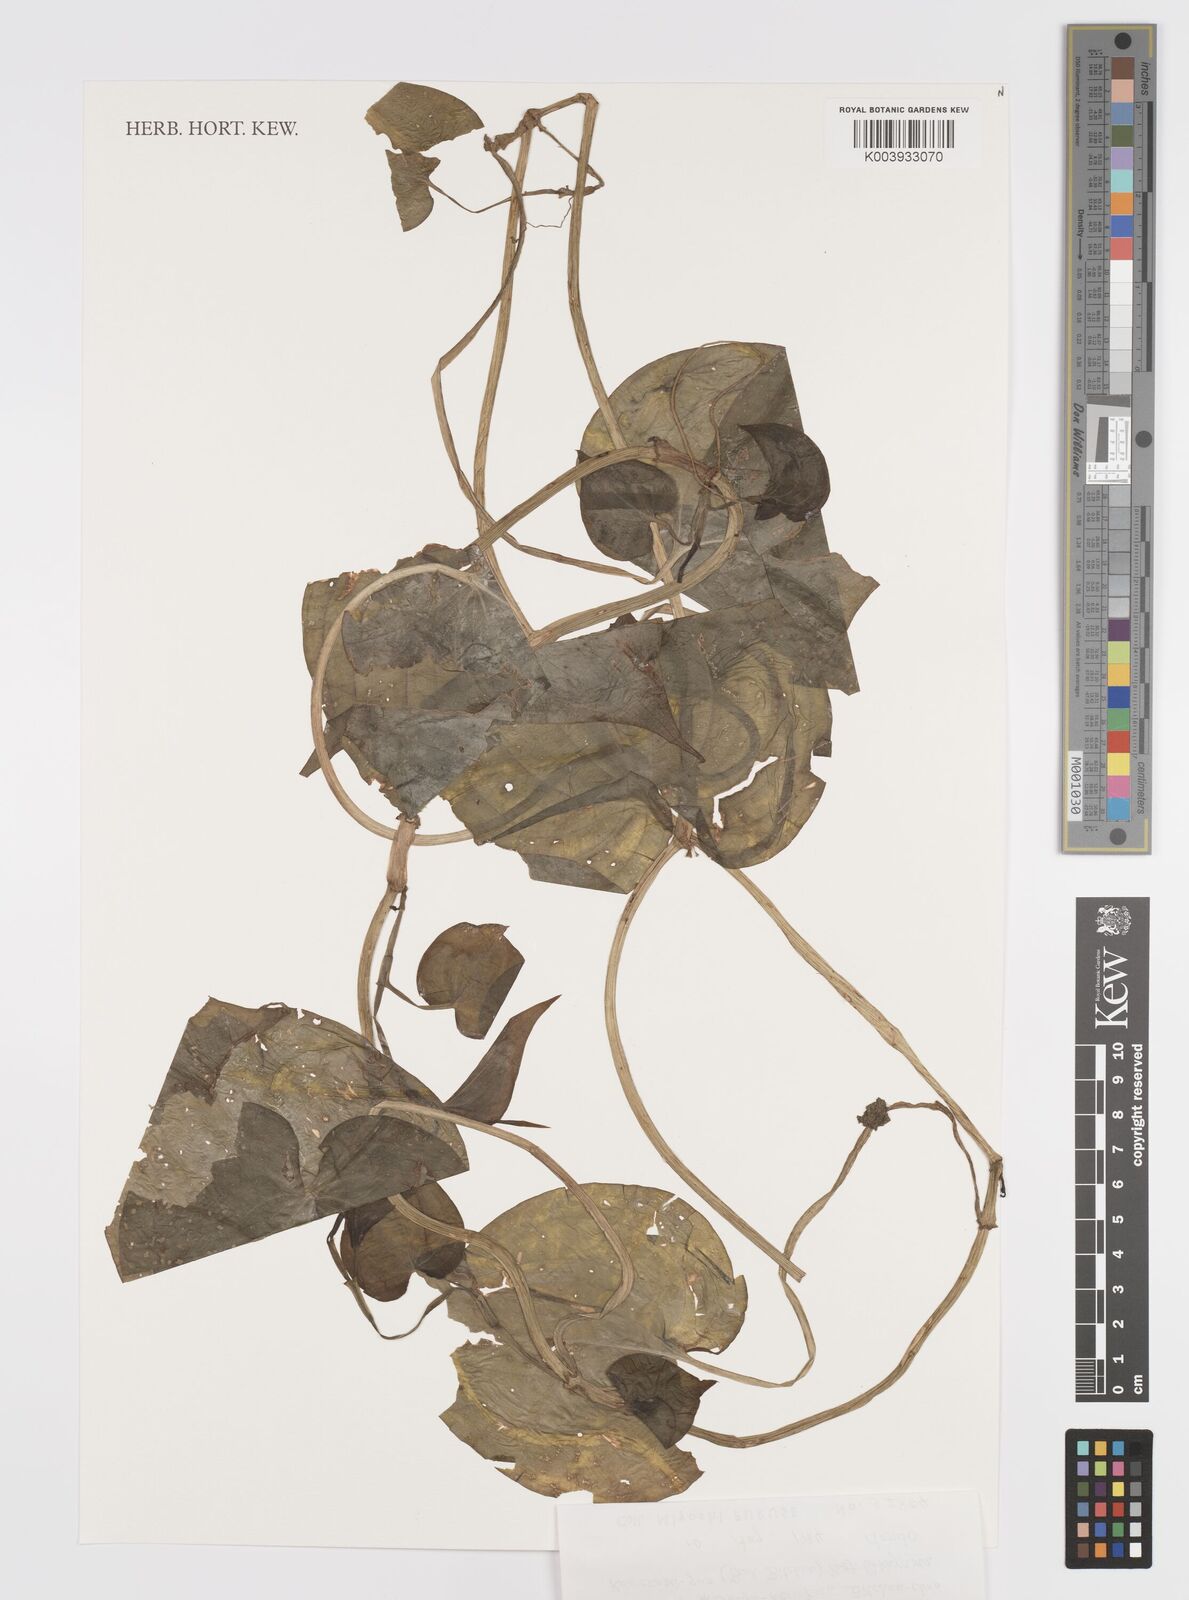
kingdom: Plantae
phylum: Tracheophyta
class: Liliopsida
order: Commelinales
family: Commelinaceae
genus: Streptolirion
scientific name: Streptolirion volubile
